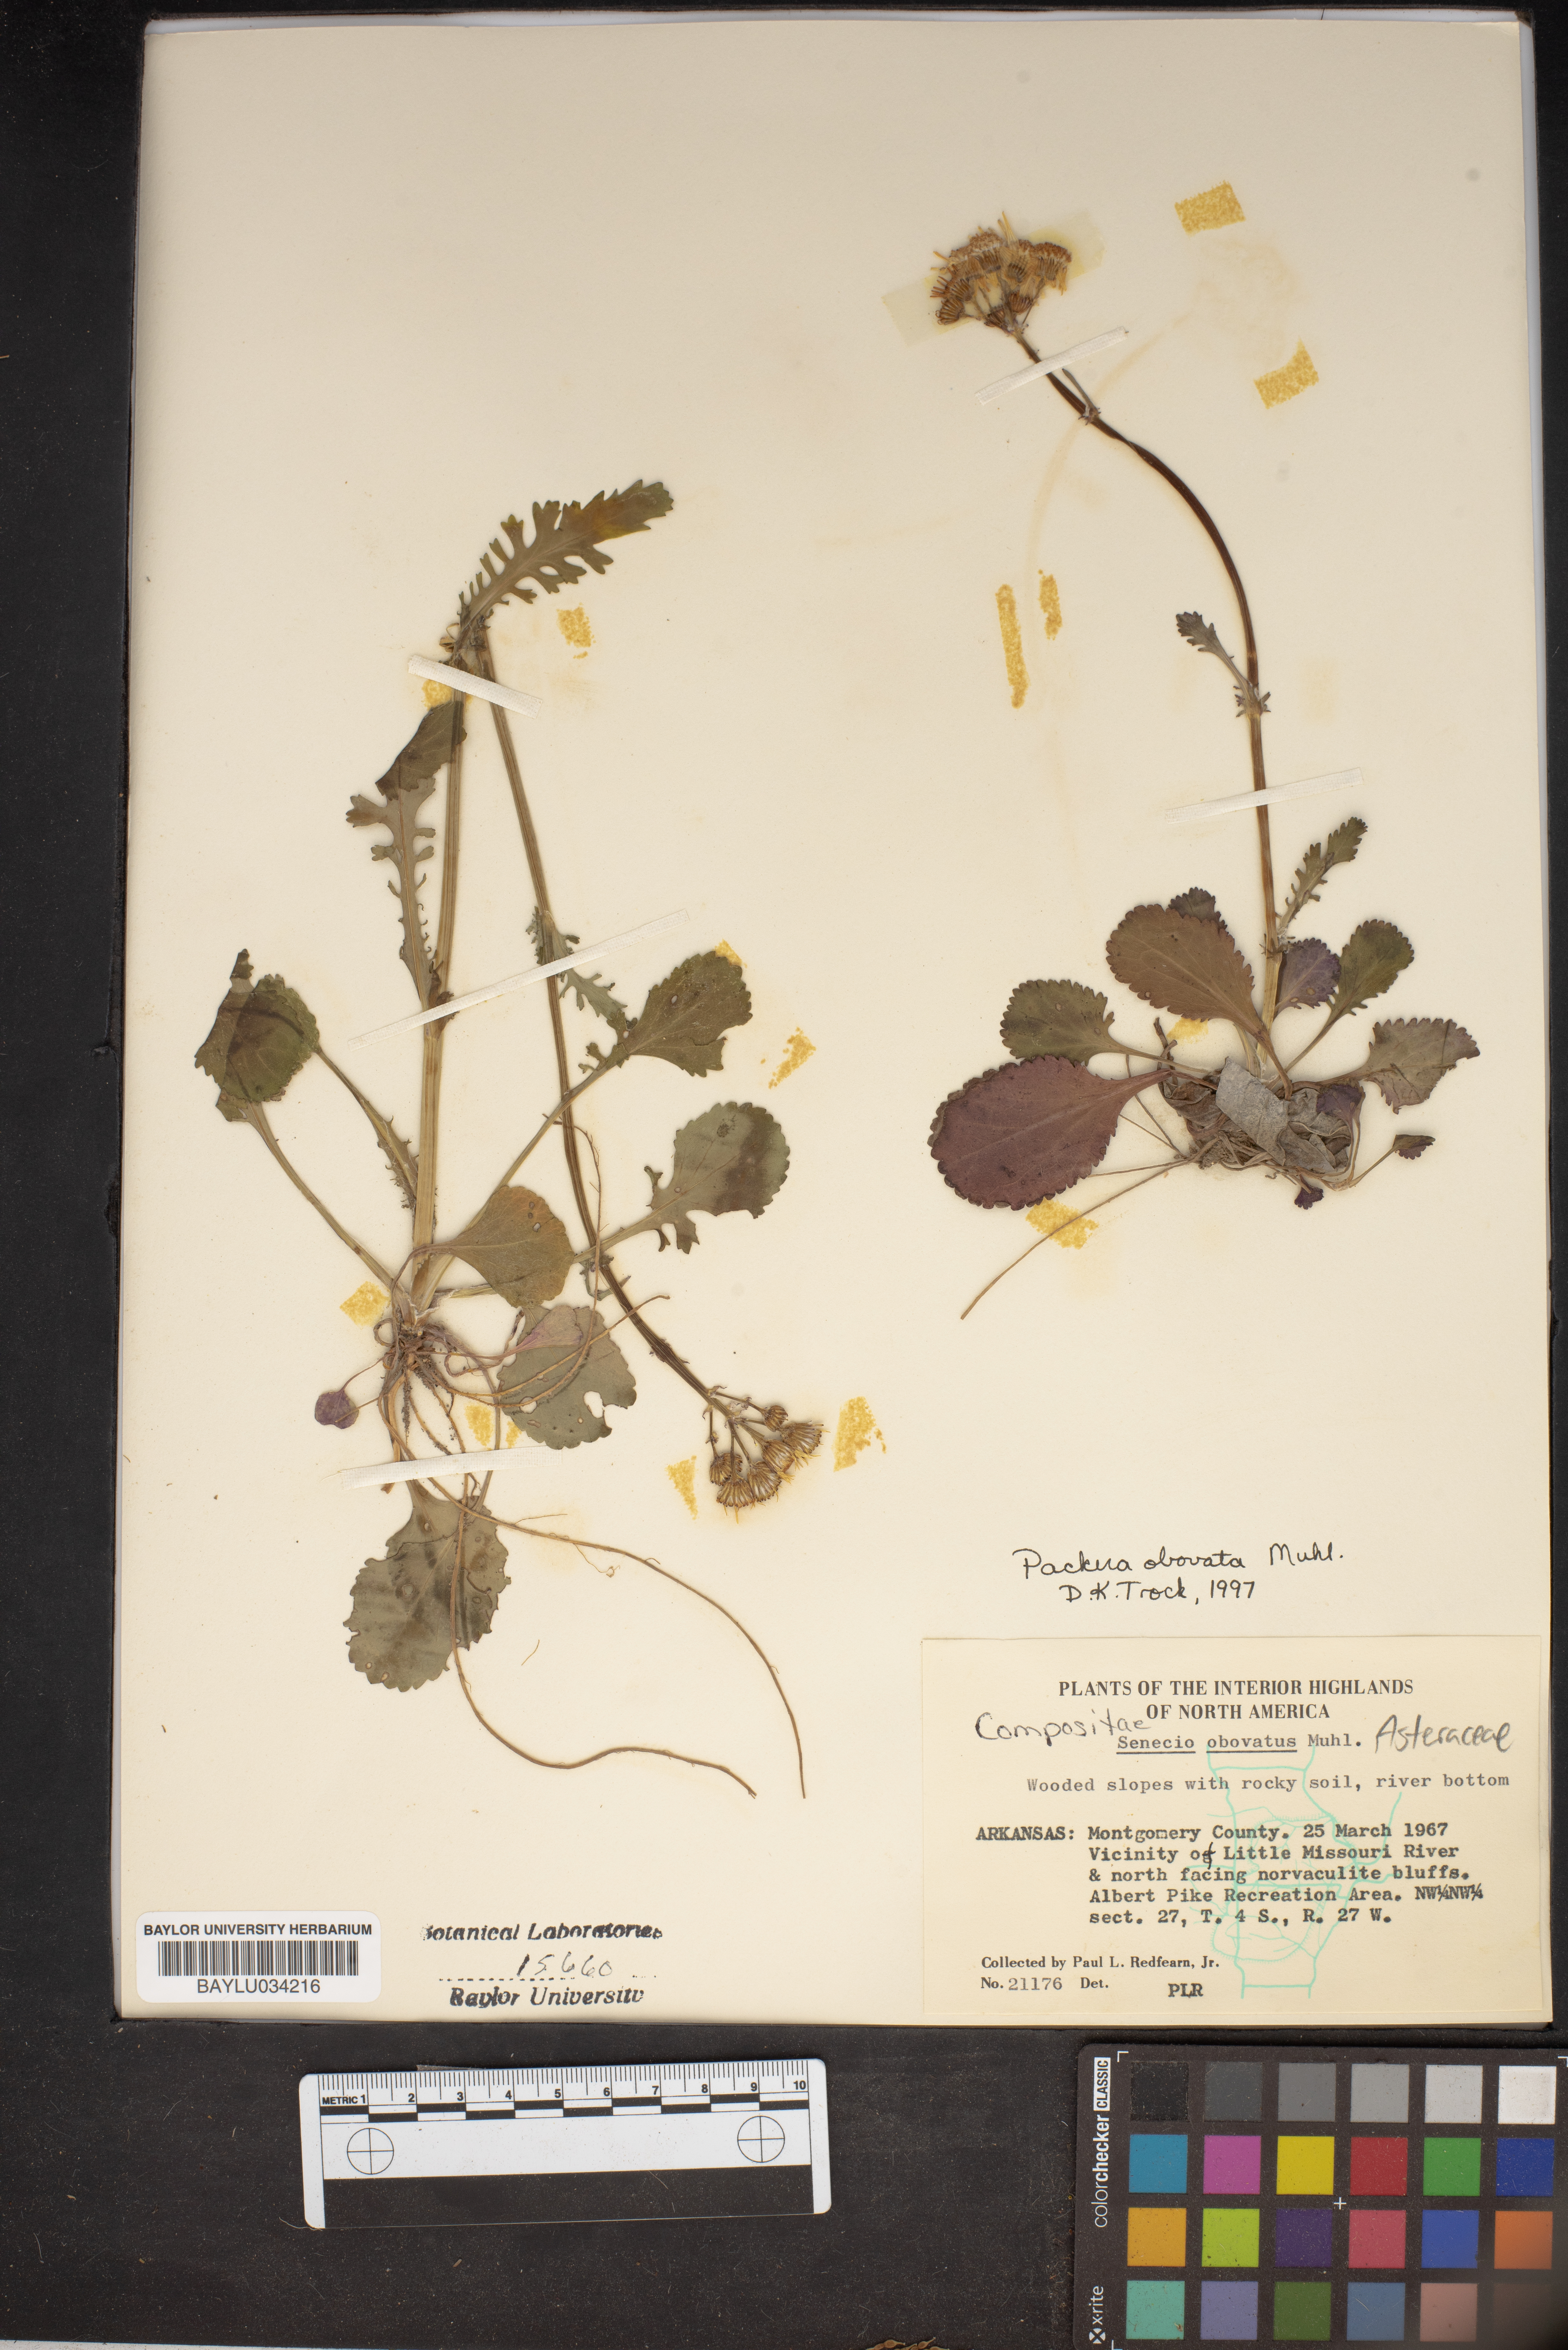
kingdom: Plantae
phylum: Tracheophyta
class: Magnoliopsida
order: Asterales
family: Asteraceae
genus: Senecio
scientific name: Senecio provincialis
